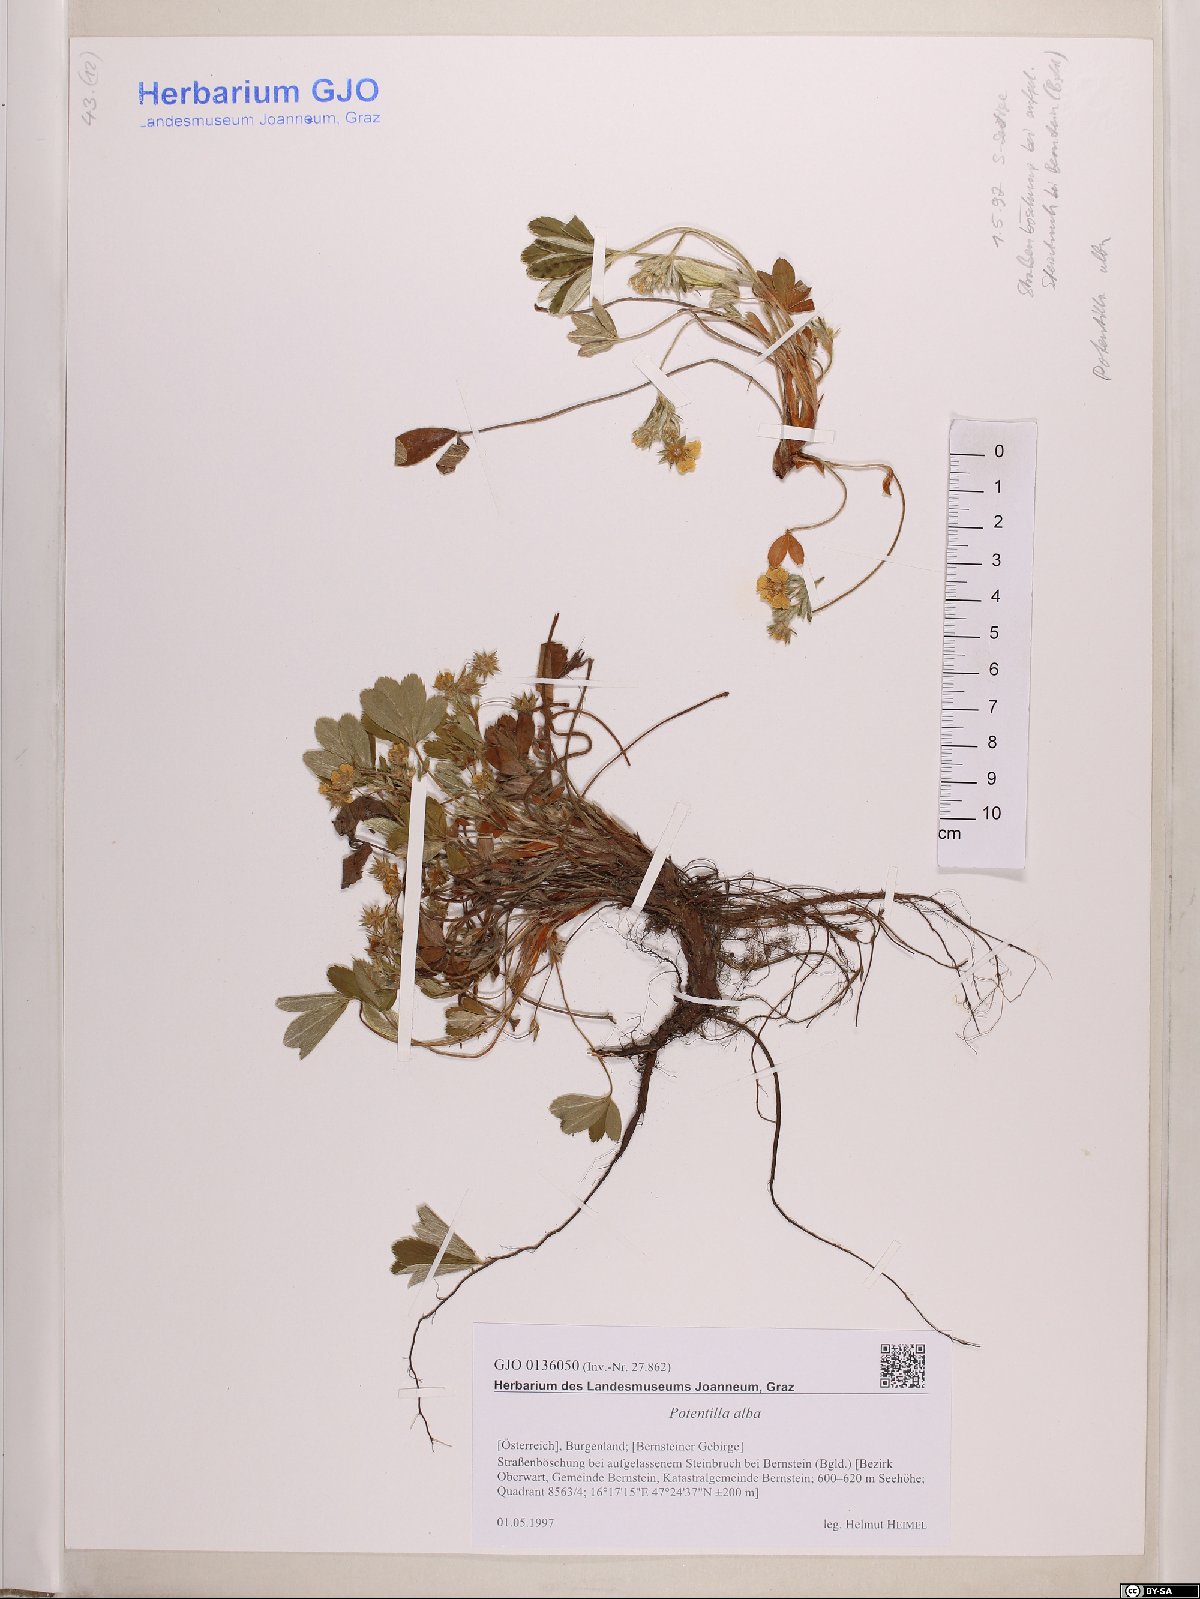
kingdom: Plantae
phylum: Tracheophyta
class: Magnoliopsida
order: Rosales
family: Rosaceae
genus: Potentilla
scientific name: Potentilla alba
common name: White cinquefoil
